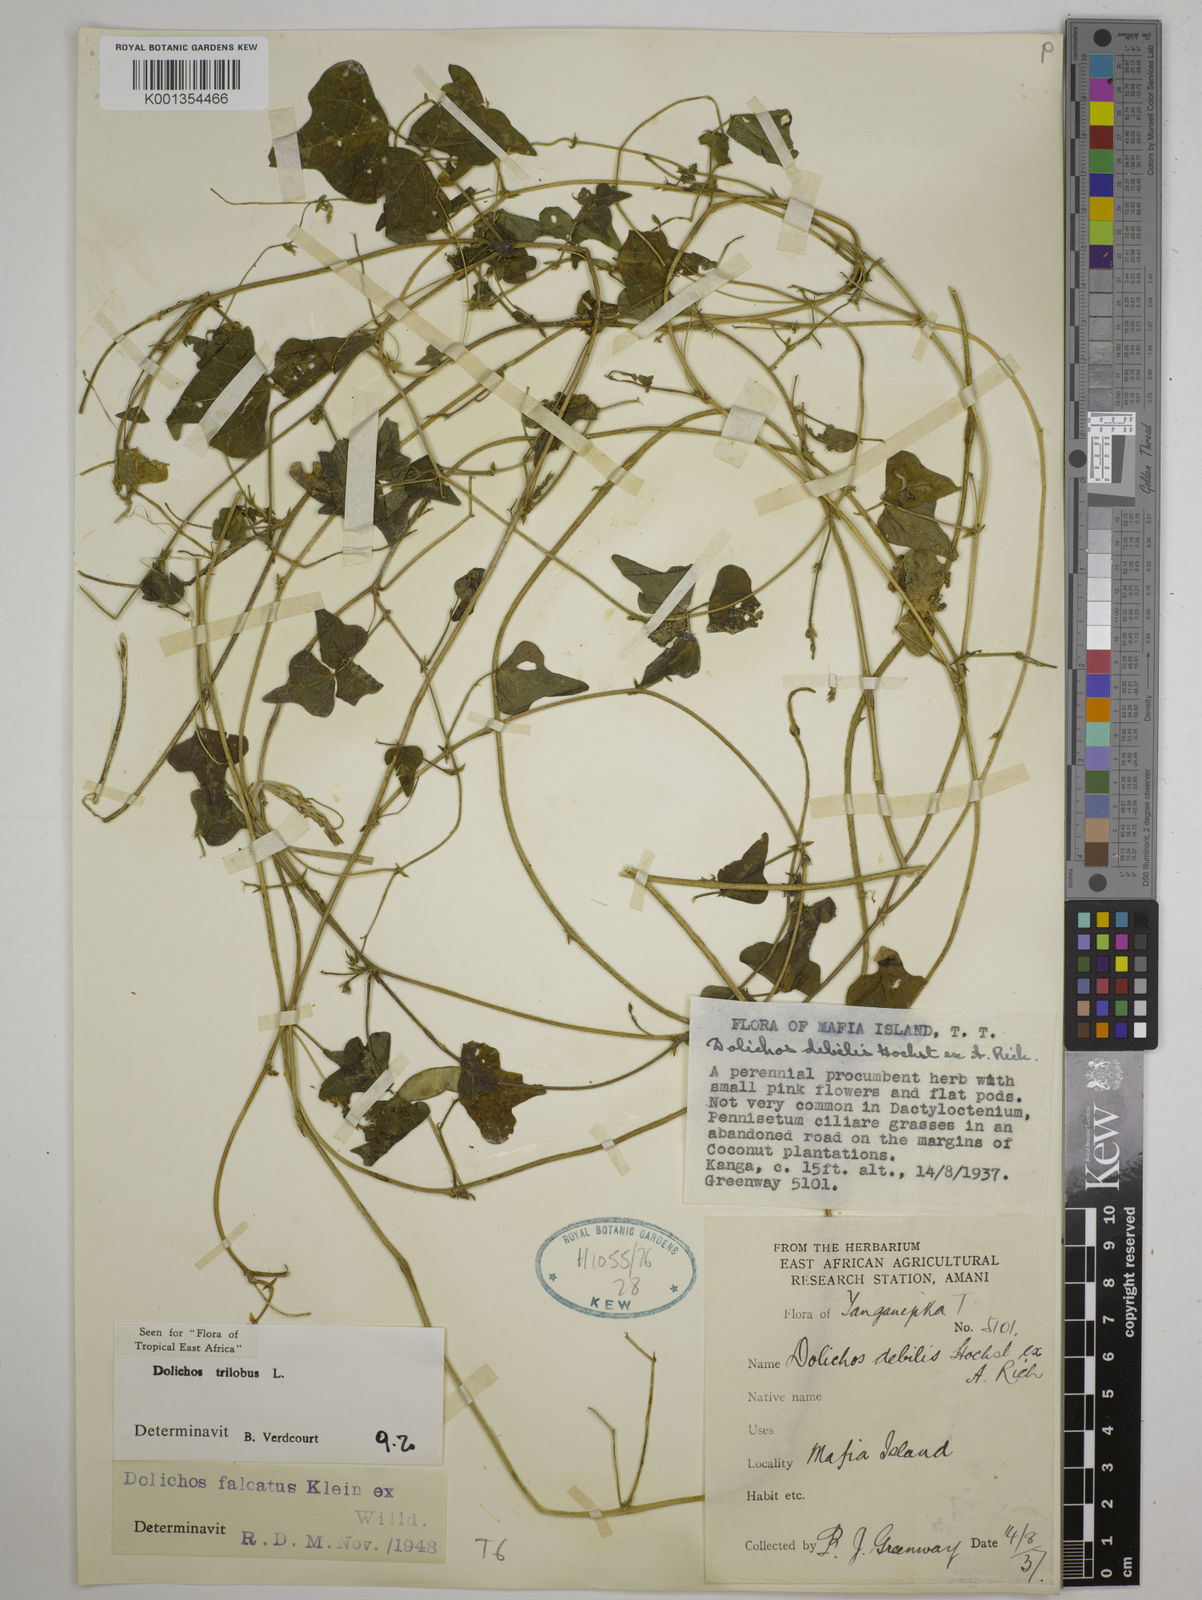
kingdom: Plantae
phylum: Tracheophyta
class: Magnoliopsida
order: Fabales
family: Fabaceae
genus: Dolichos
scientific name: Dolichos
